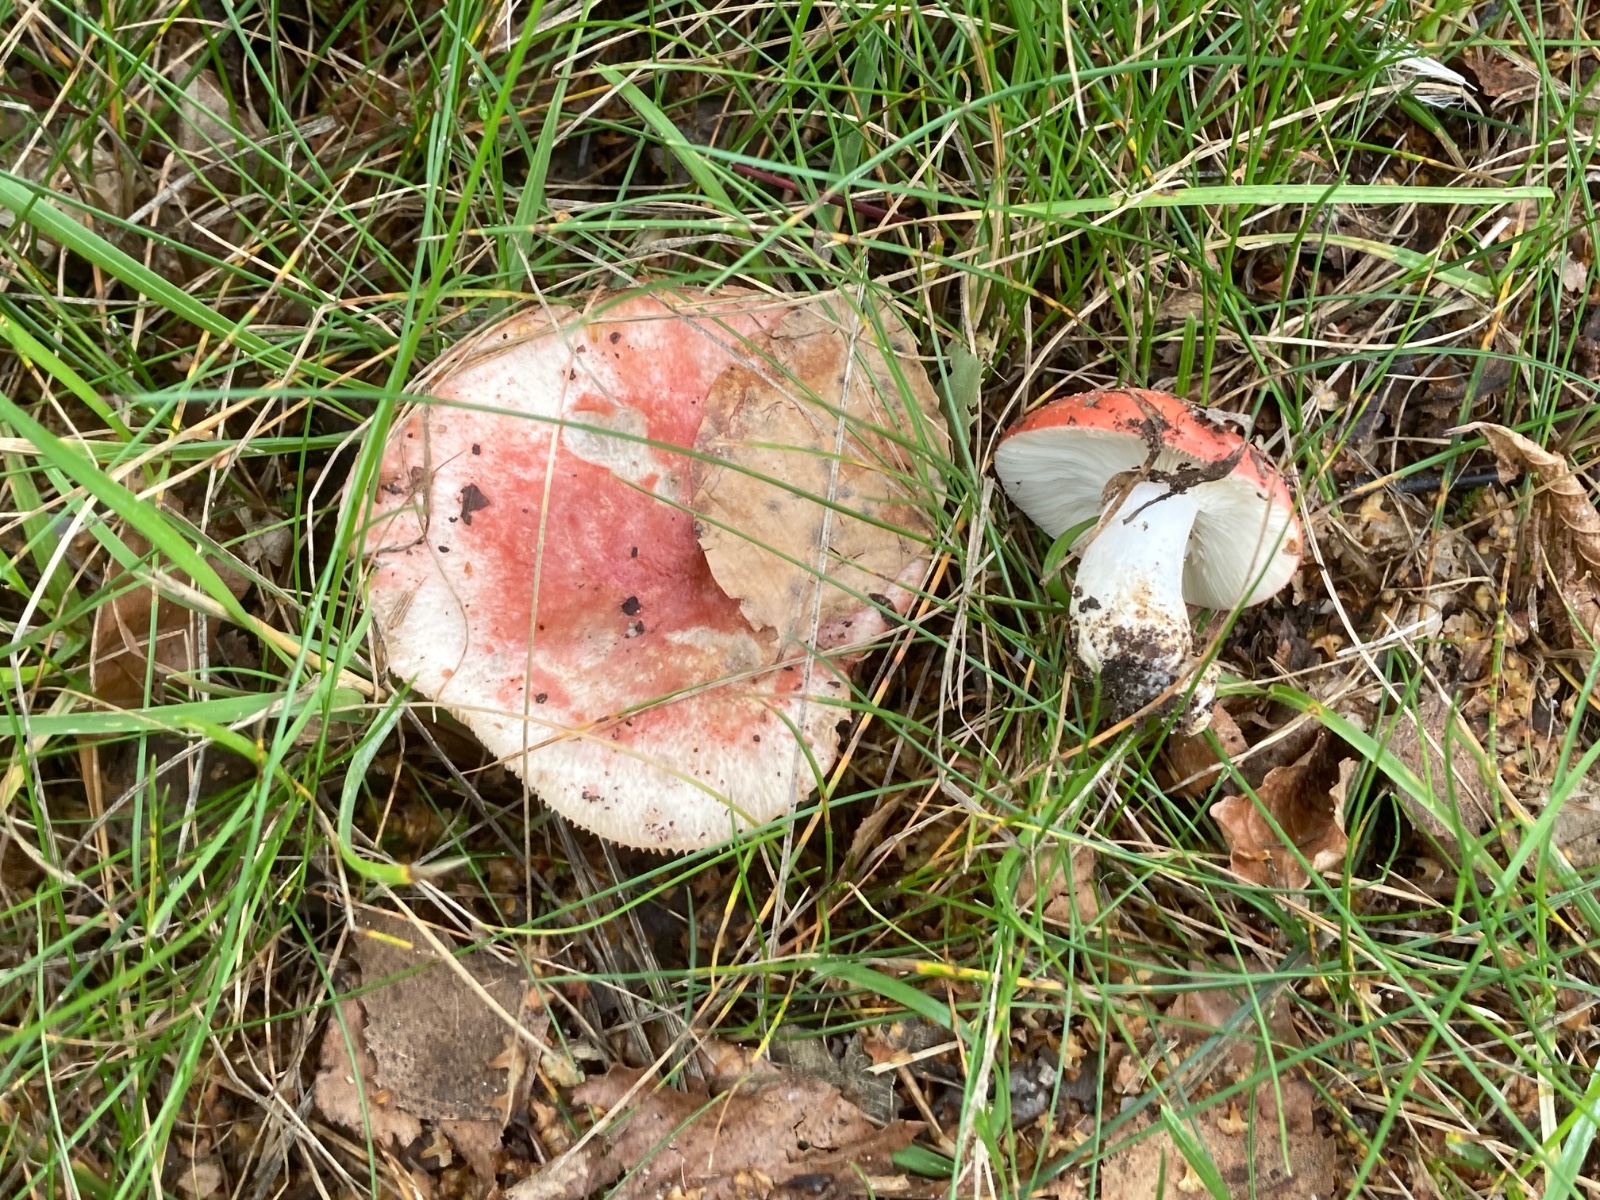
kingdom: Fungi
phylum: Basidiomycota
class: Agaricomycetes
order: Russulales
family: Russulaceae
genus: Russula
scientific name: Russula depallens
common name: falmende skørhat
